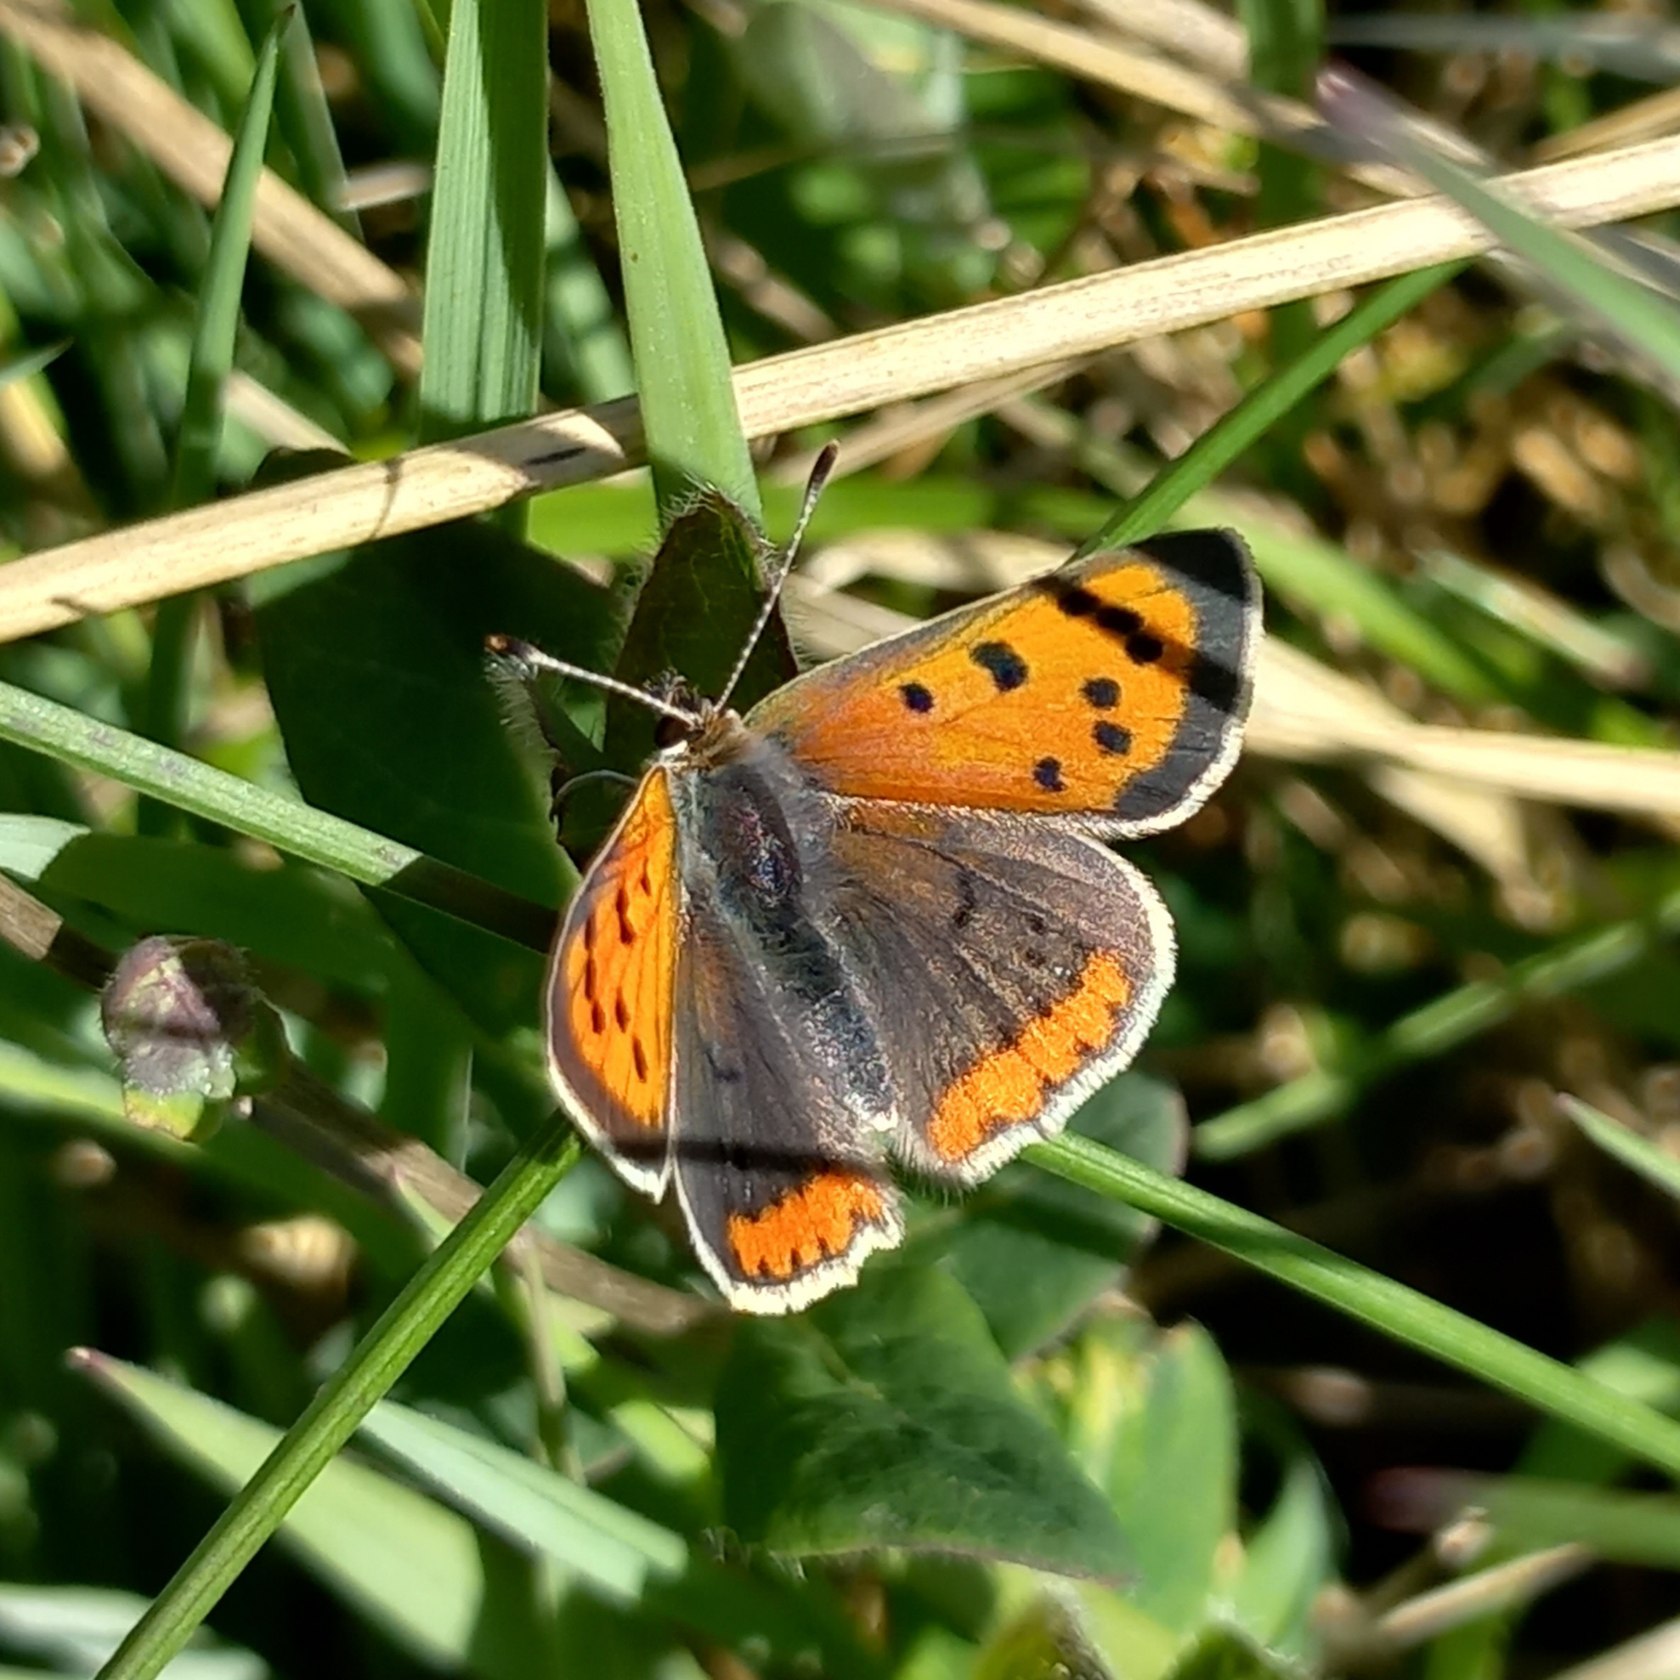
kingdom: Animalia
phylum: Arthropoda
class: Insecta
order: Lepidoptera
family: Lycaenidae
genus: Lycaena
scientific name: Lycaena phlaeas
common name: Lille ildfugl
